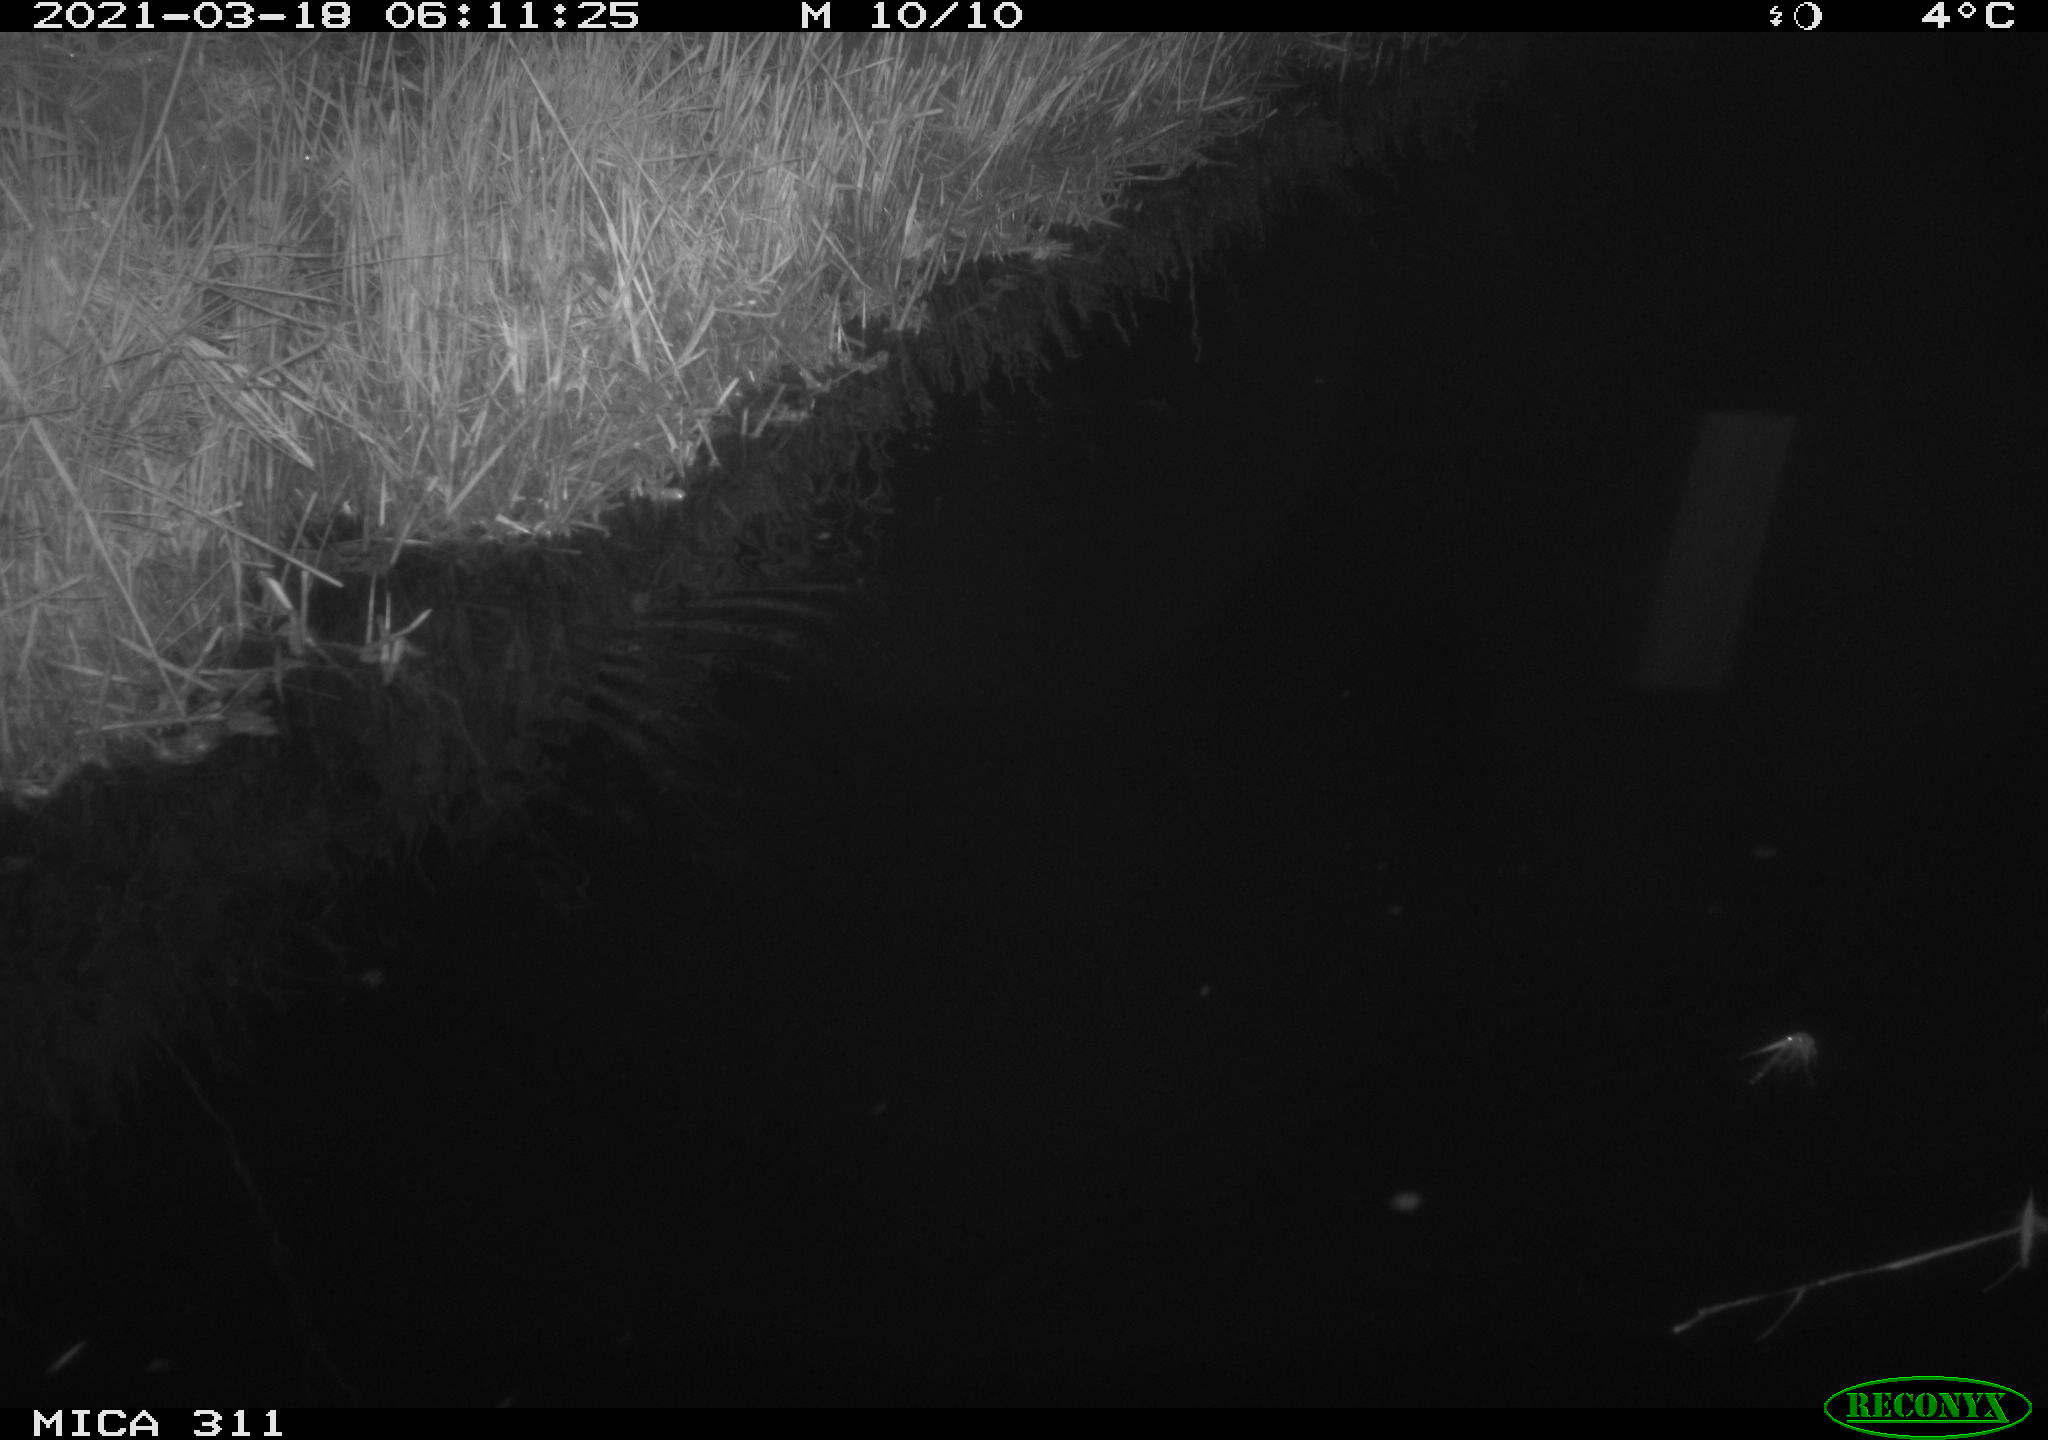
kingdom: Animalia
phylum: Chordata
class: Aves
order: Anseriformes
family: Anatidae
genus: Anas
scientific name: Anas platyrhynchos
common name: Mallard
